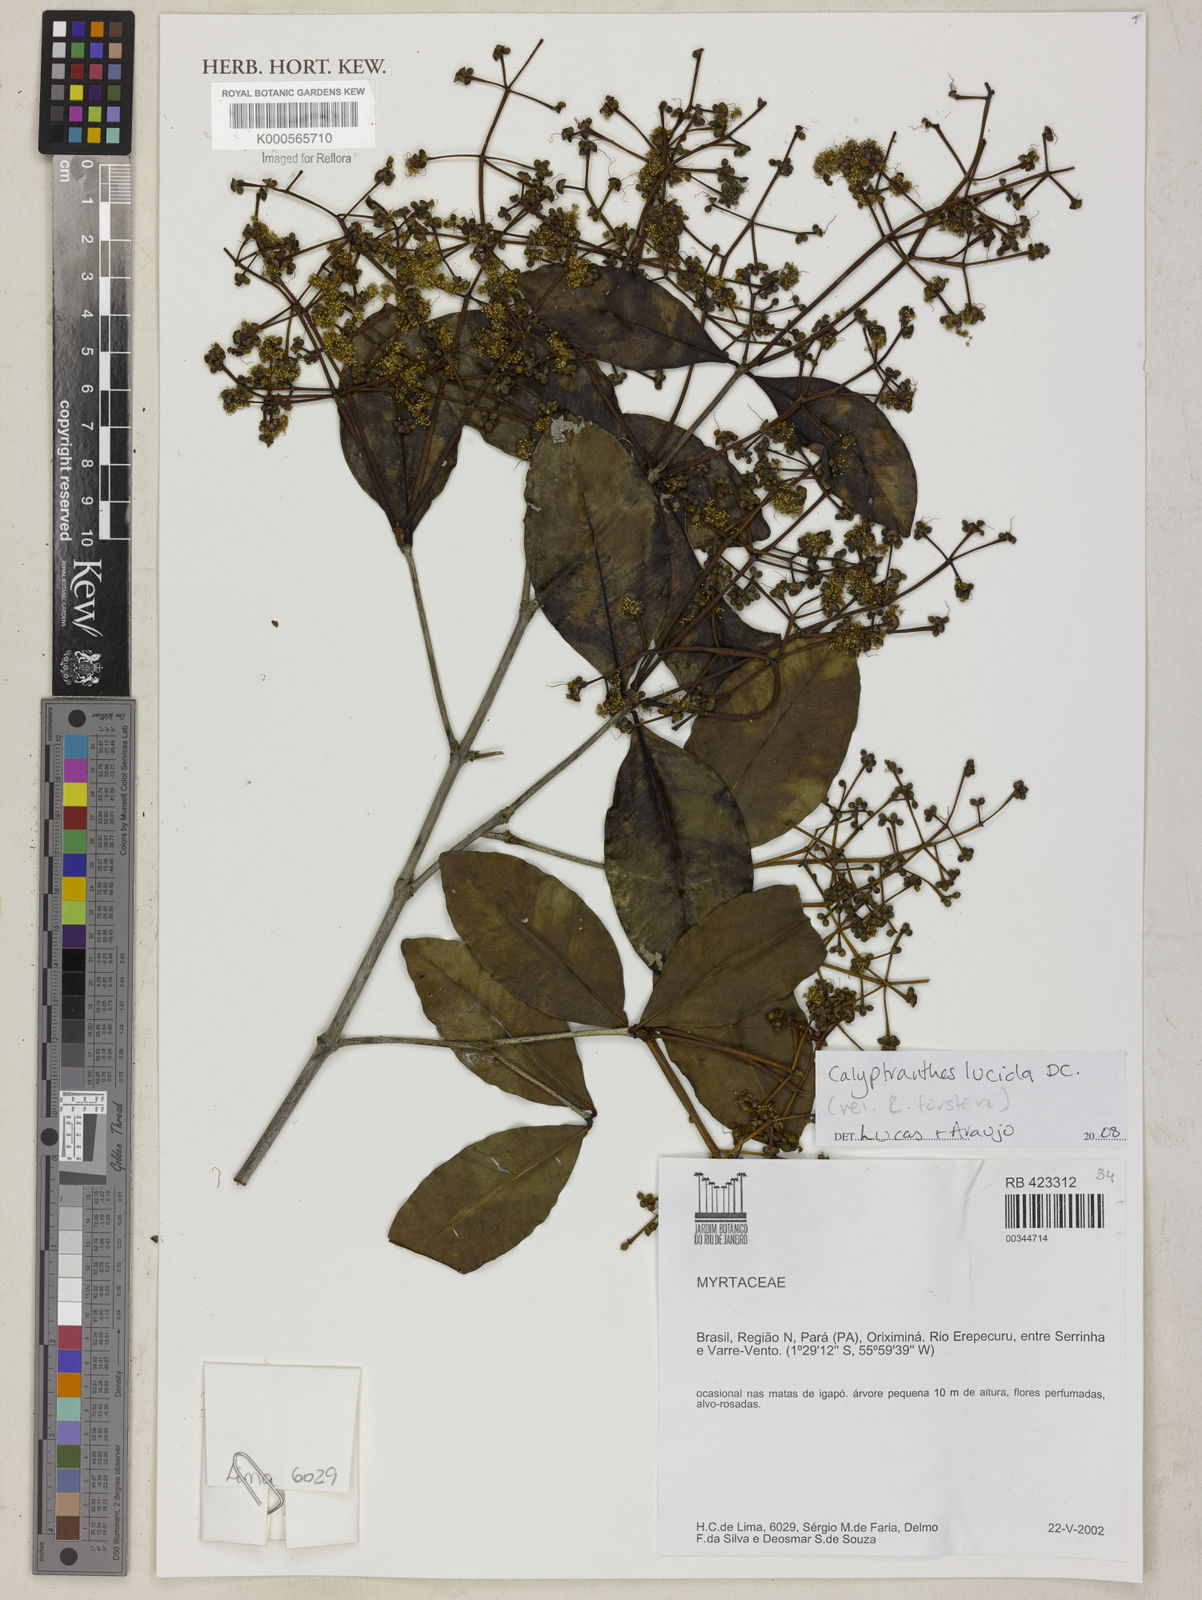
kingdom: Plantae
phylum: Tracheophyta
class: Magnoliopsida
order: Myrtales
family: Myrtaceae
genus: Myrcia
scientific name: Myrcia neolucida
